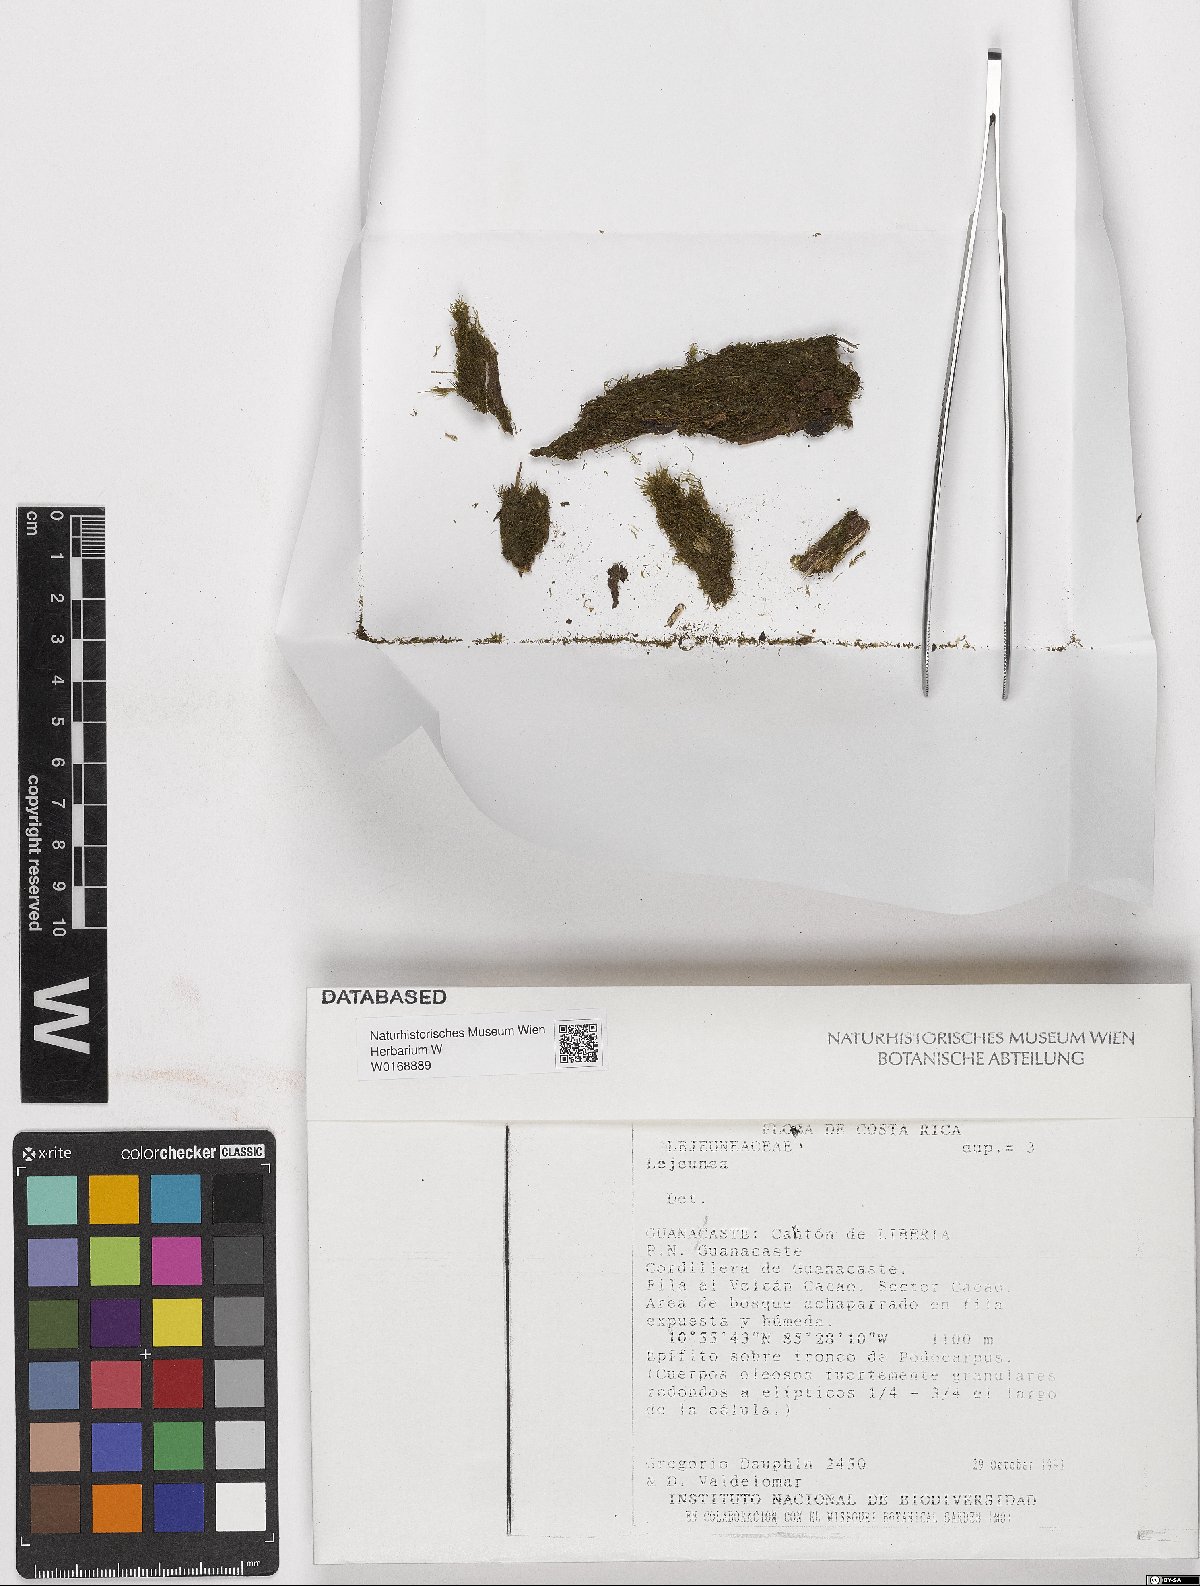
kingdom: Plantae
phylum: Marchantiophyta
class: Jungermanniopsida
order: Porellales
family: Lejeuneaceae
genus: Lejeunea
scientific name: Lejeunea
